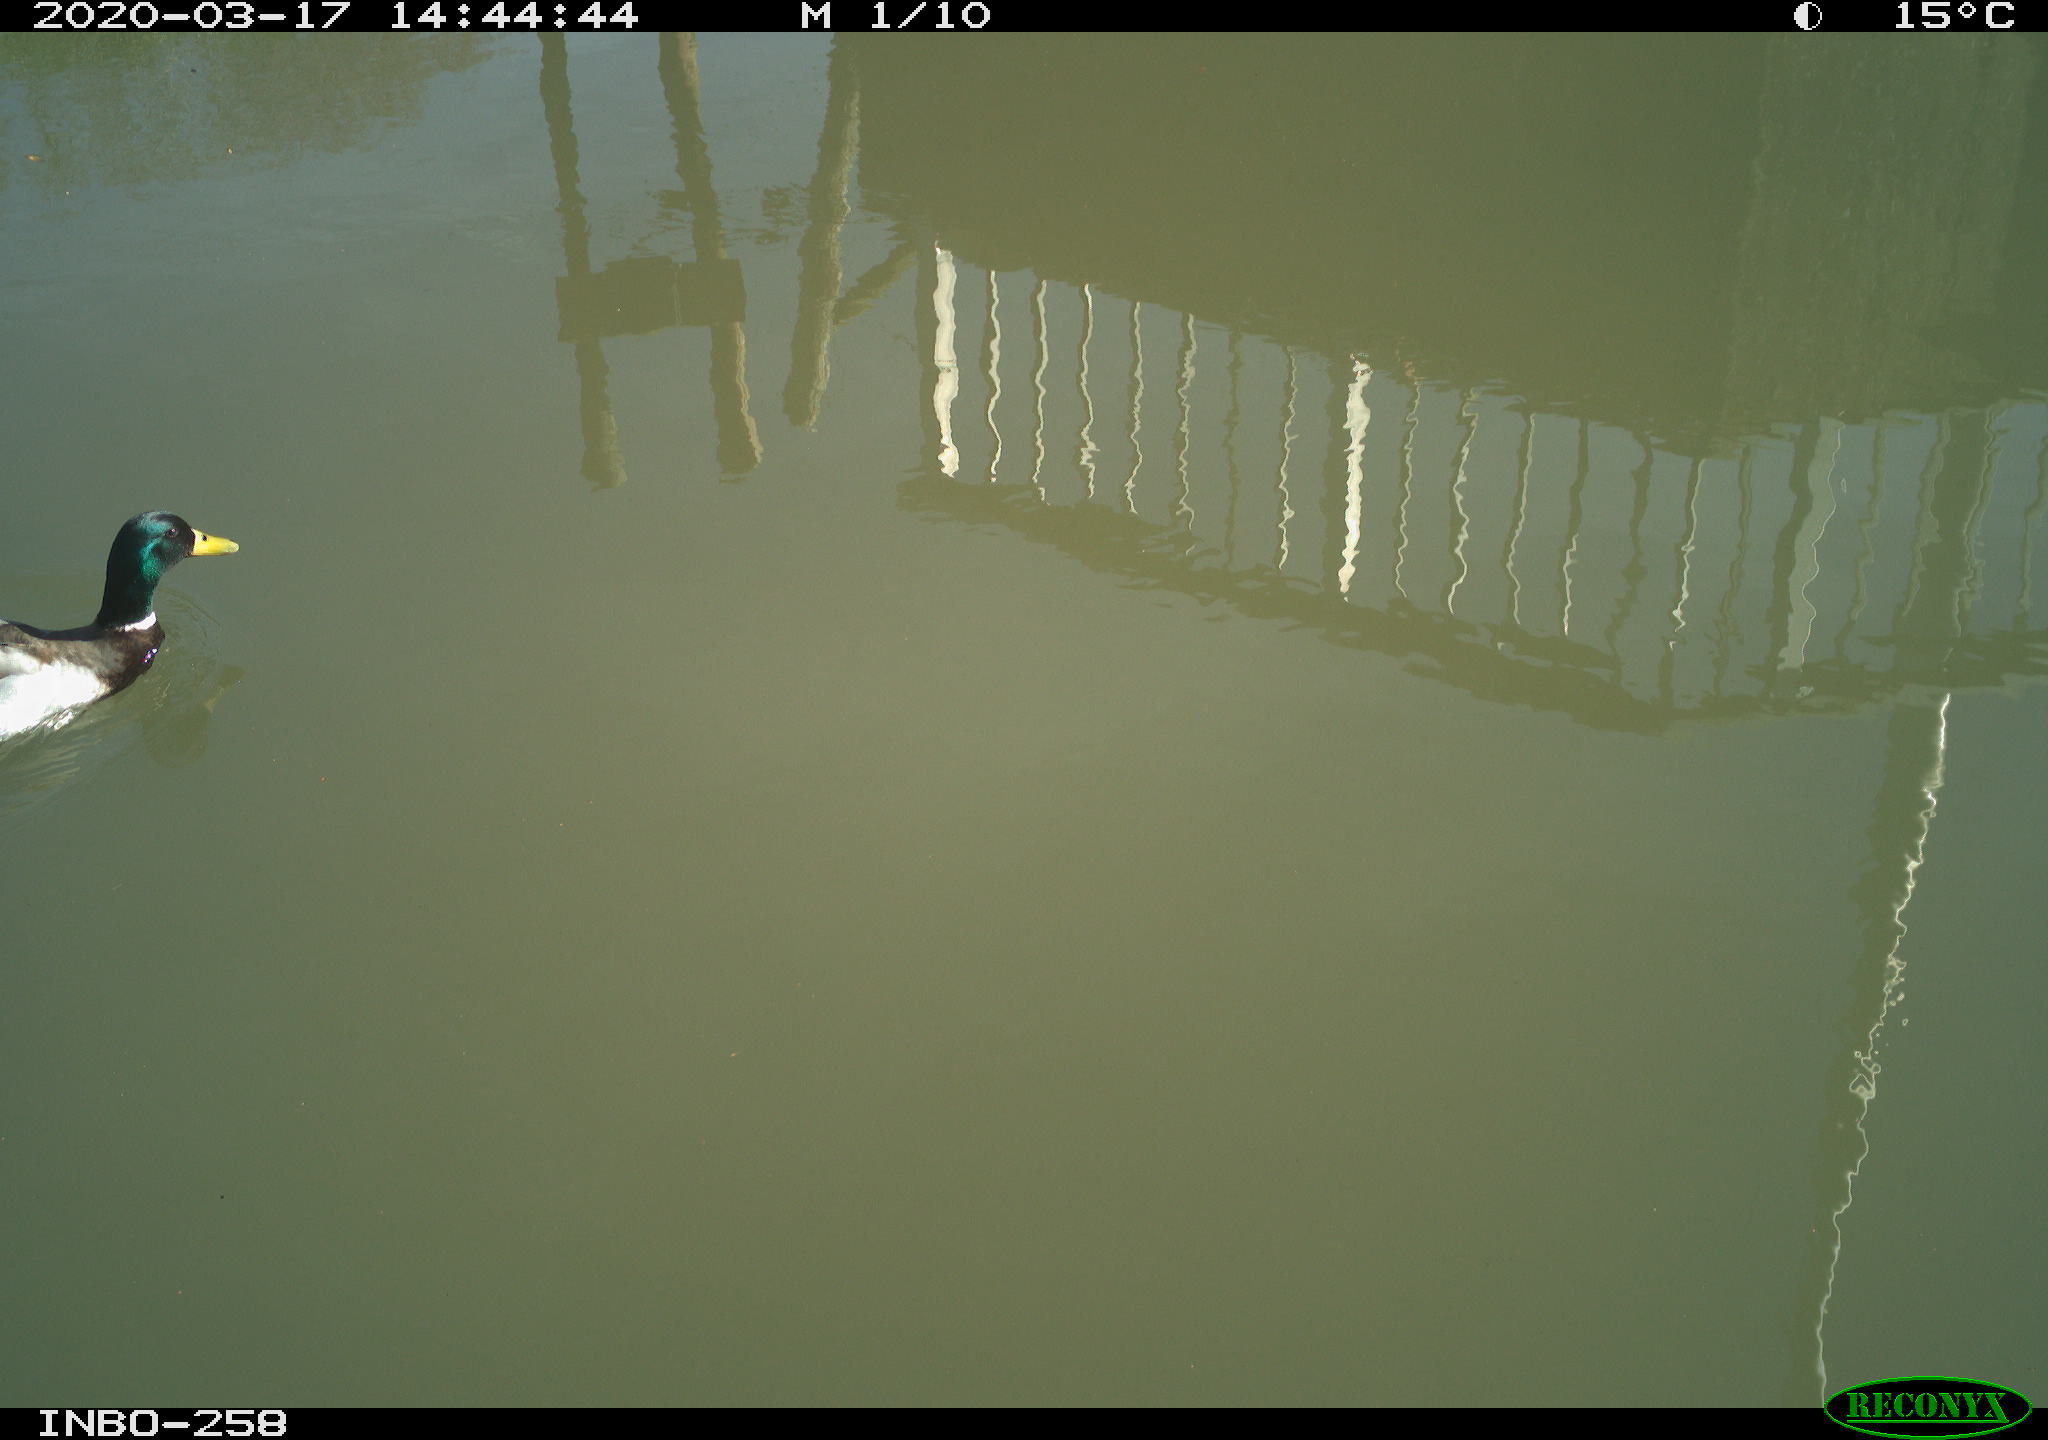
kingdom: Animalia
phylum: Chordata
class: Aves
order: Anseriformes
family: Anatidae
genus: Anas
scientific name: Anas platyrhynchos
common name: Mallard
